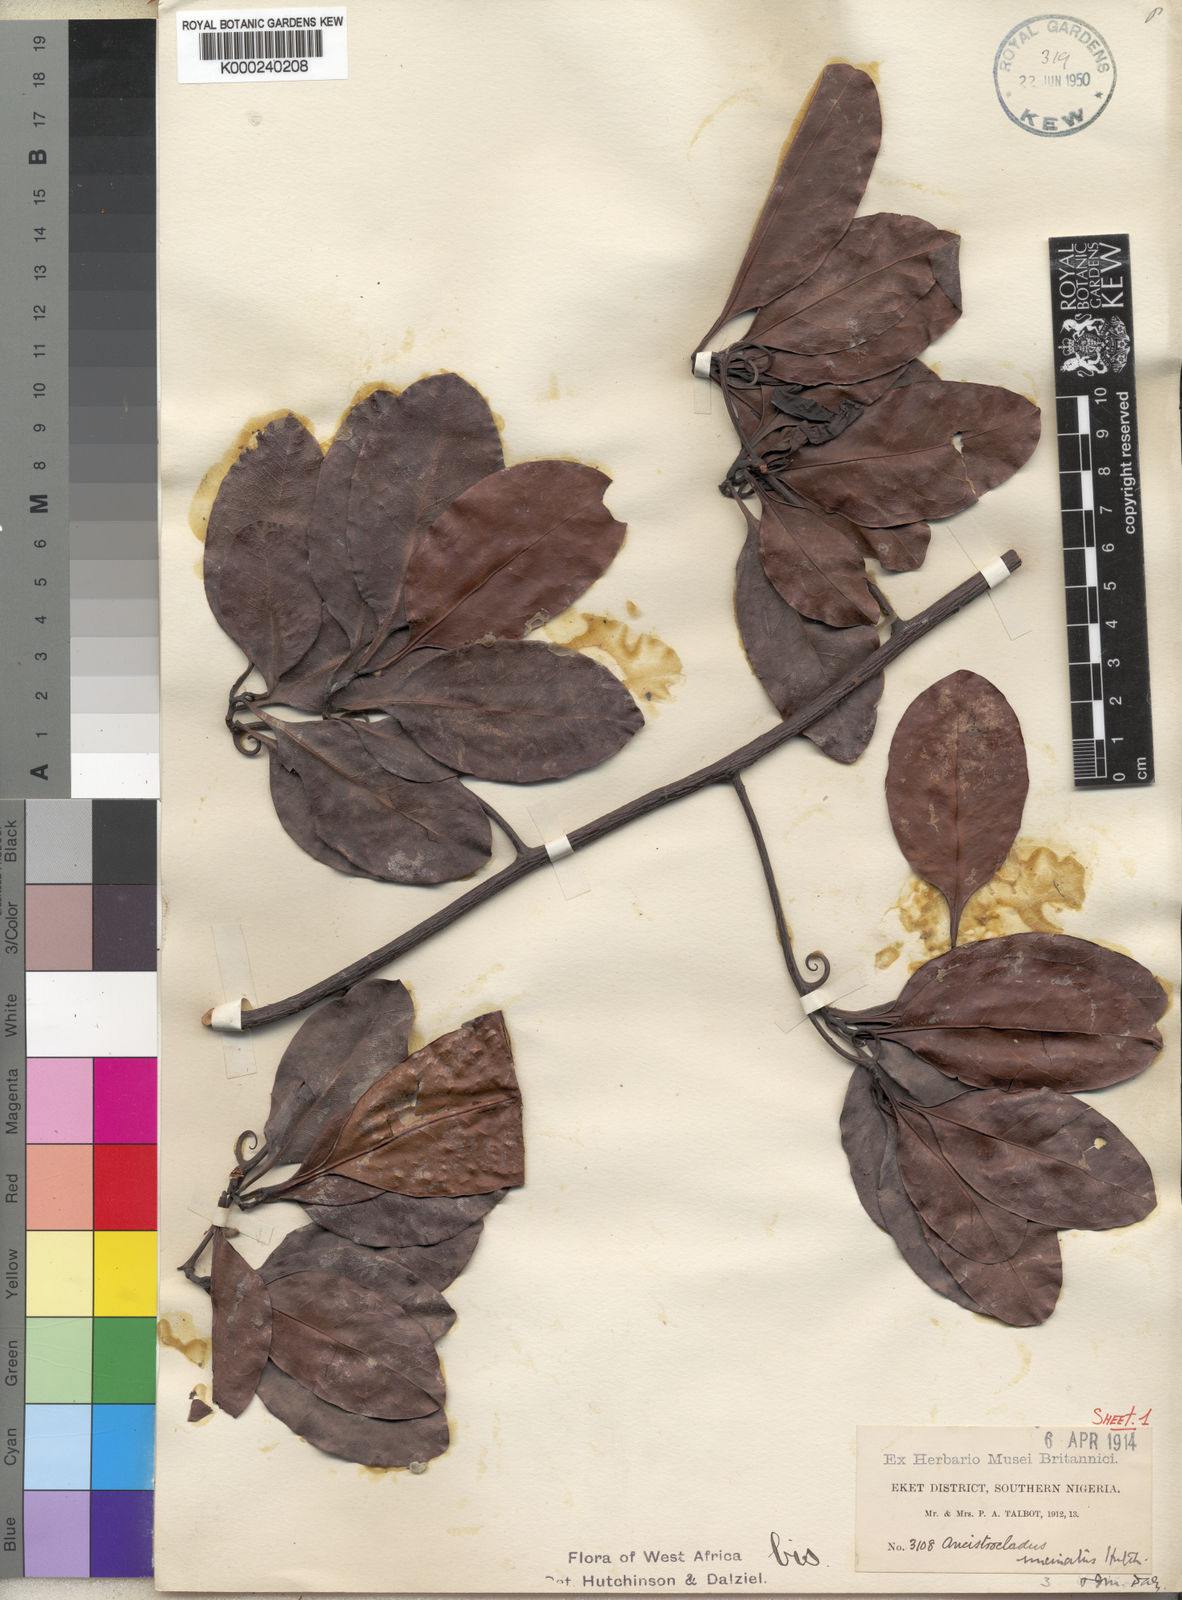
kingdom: Plantae
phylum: Tracheophyta
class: Magnoliopsida
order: Caryophyllales
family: Ancistrocladaceae
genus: Ancistrocladus
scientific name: Ancistrocladus guineensis
